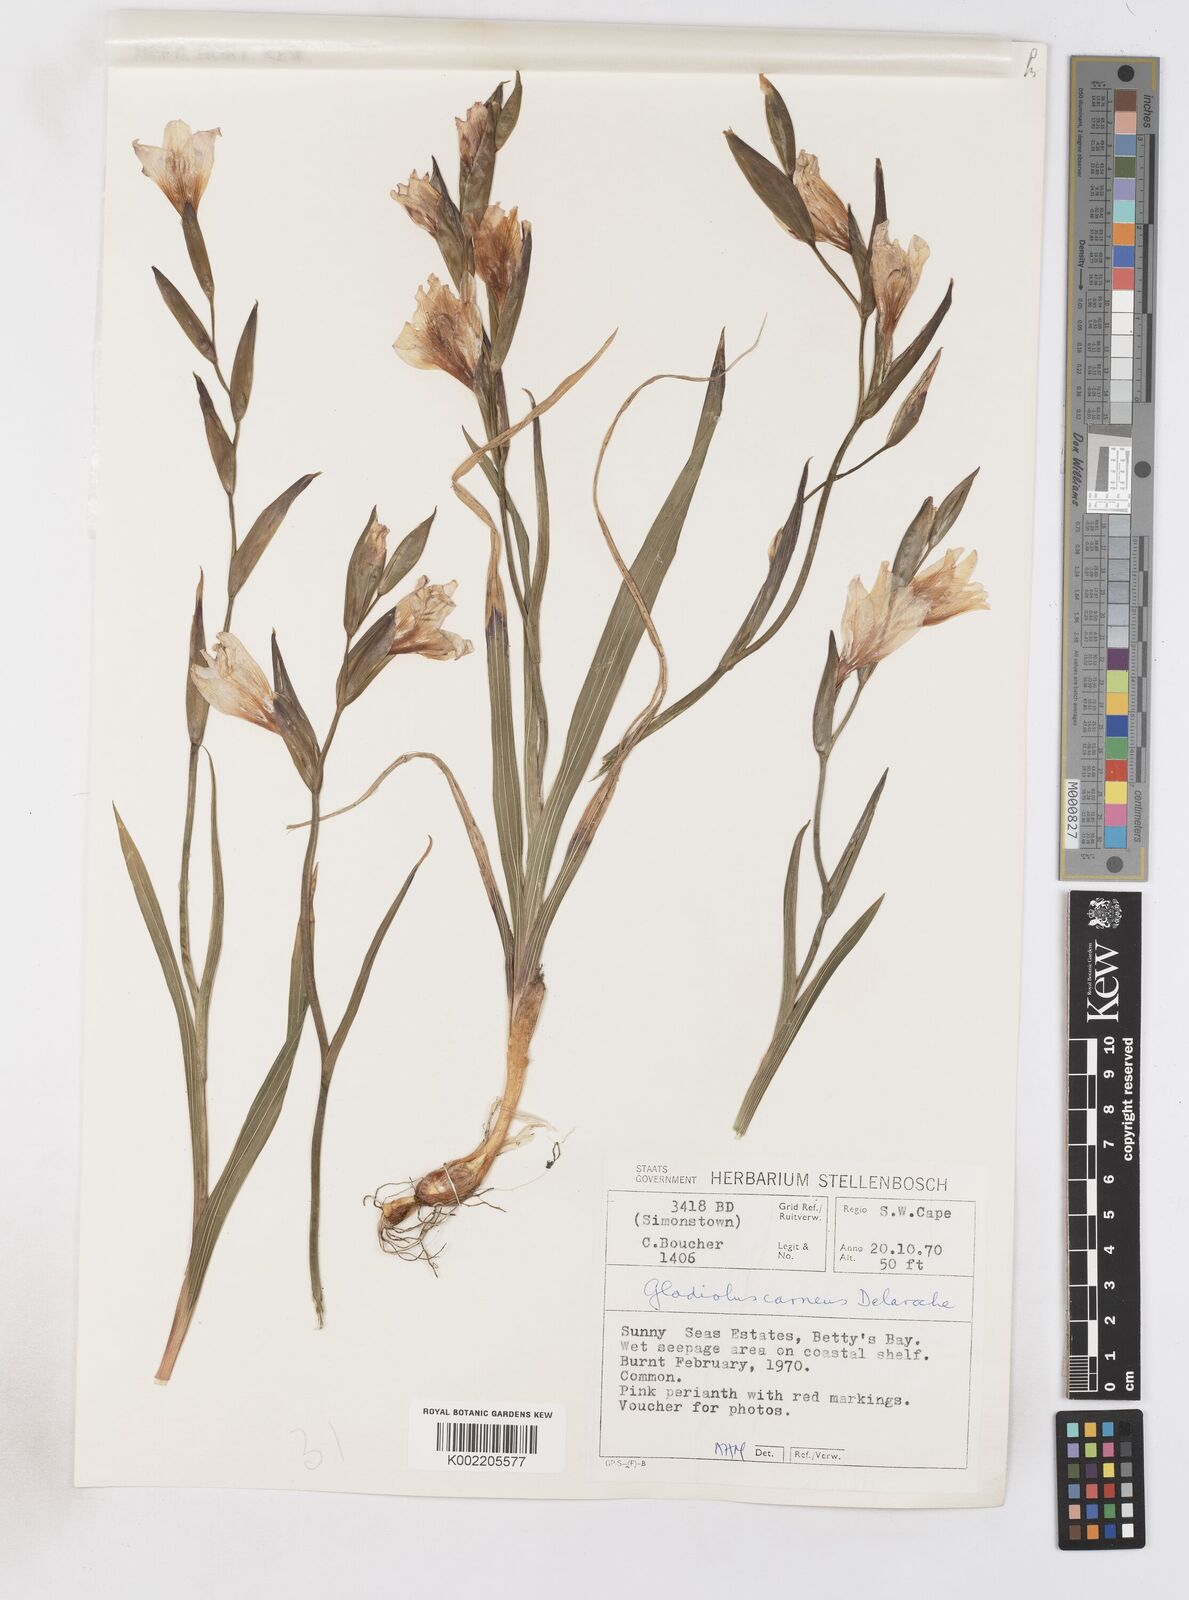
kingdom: Plantae
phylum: Tracheophyta
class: Liliopsida
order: Asparagales
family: Iridaceae
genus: Gladiolus
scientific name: Gladiolus carneus
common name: Painted-lady
